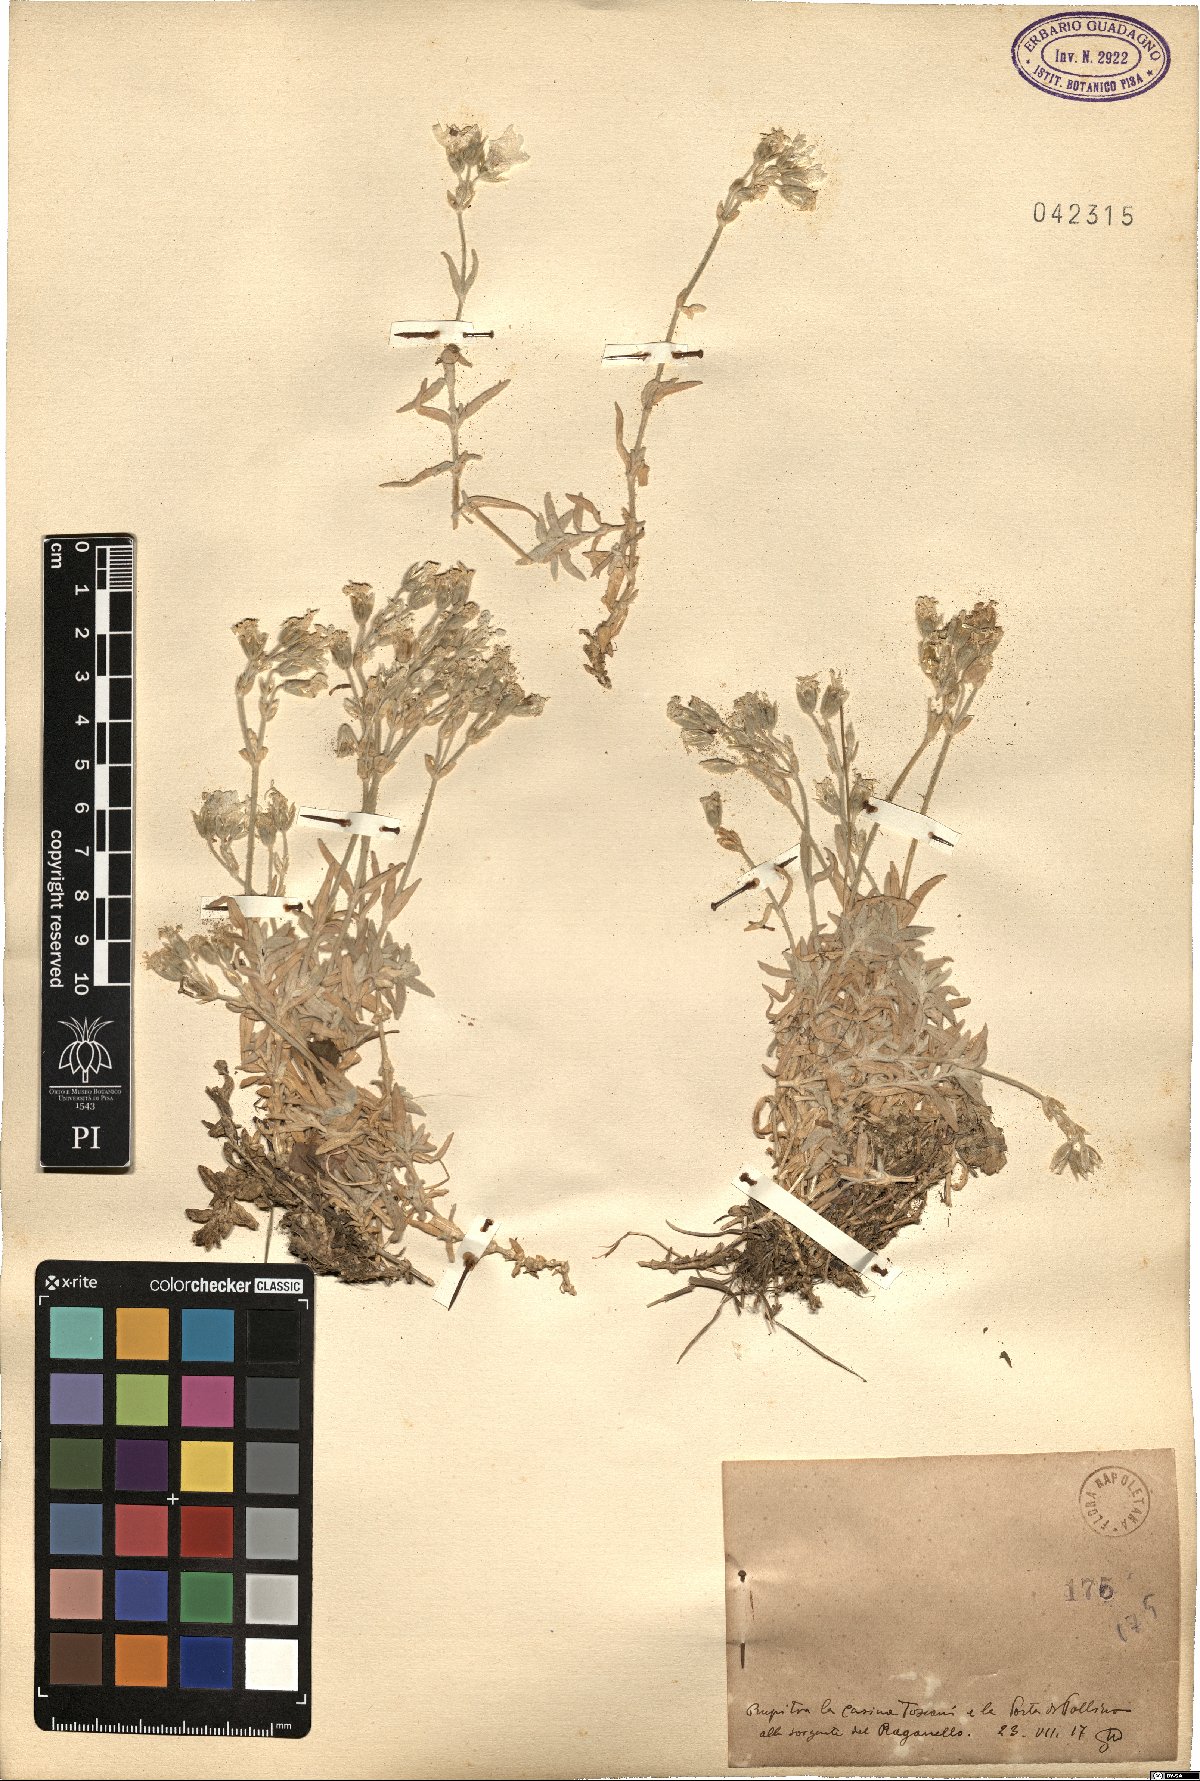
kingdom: Plantae
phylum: Tracheophyta
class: Magnoliopsida
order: Caryophyllales
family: Caryophyllaceae
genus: Cerastium
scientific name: Cerastium
